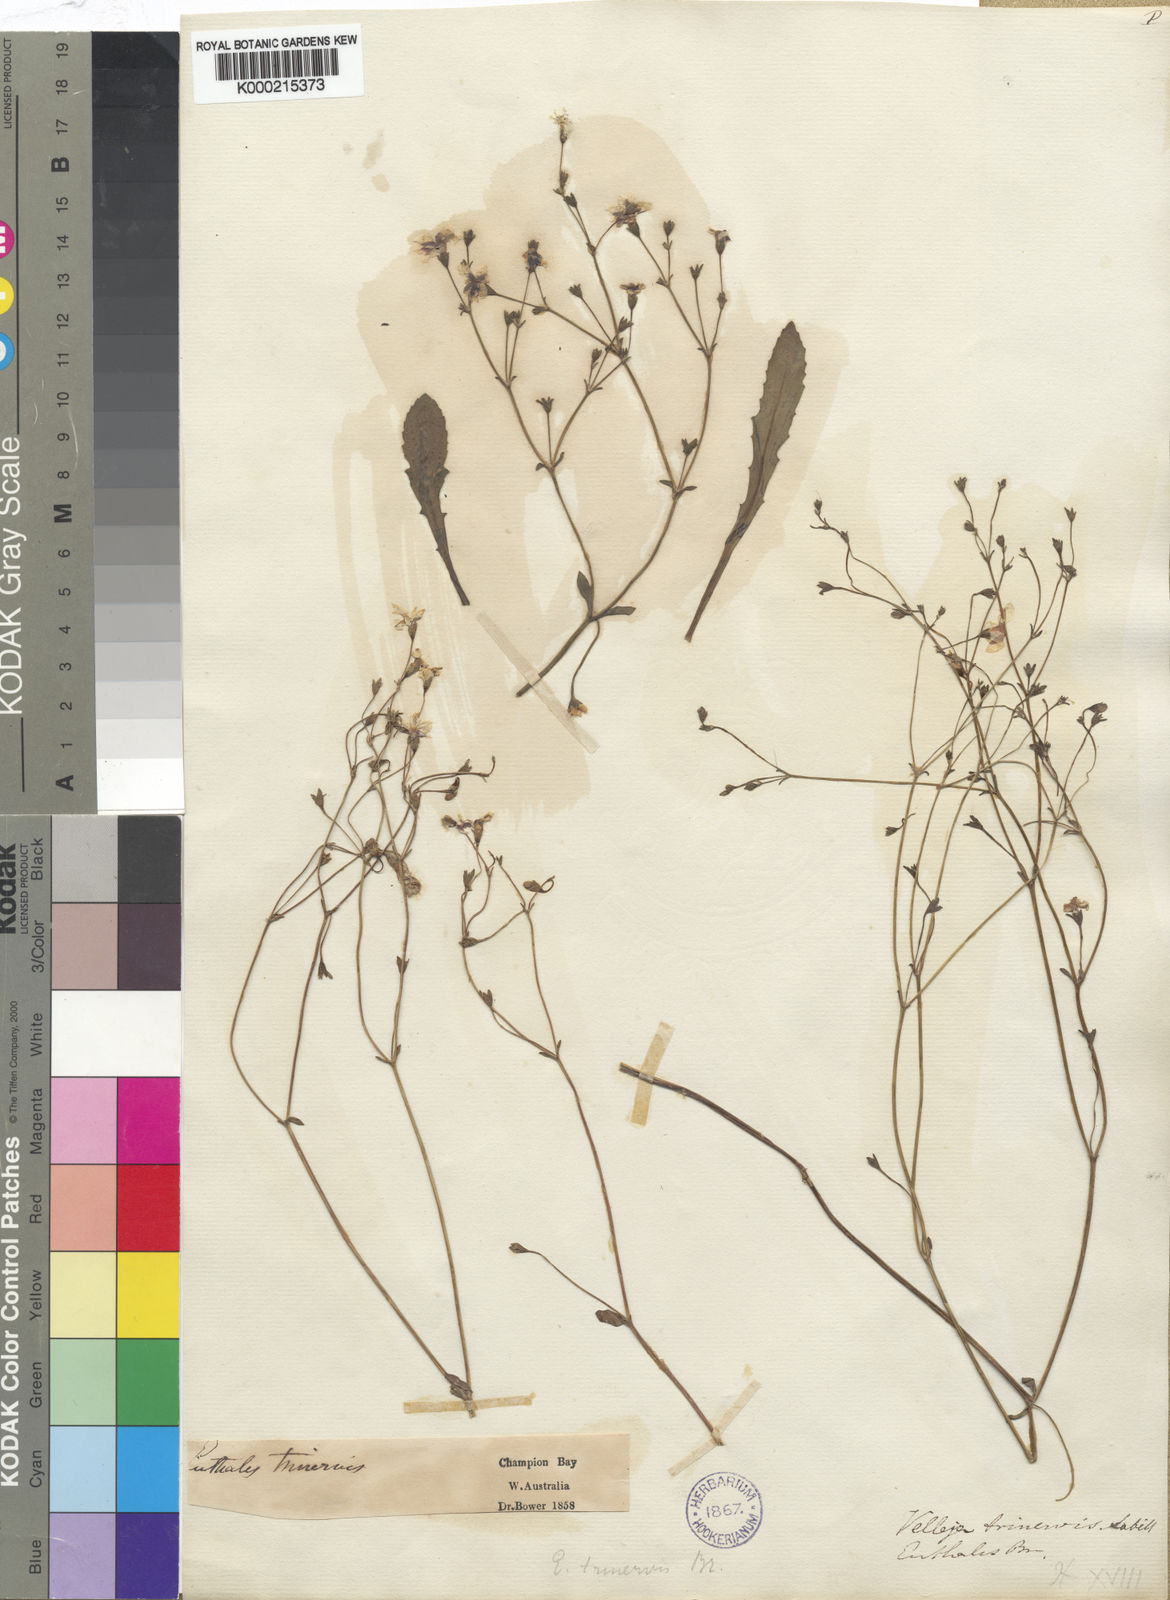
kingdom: Plantae
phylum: Tracheophyta
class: Magnoliopsida
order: Asterales
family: Goodeniaceae
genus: Goodenia
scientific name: Goodenia trinervis
